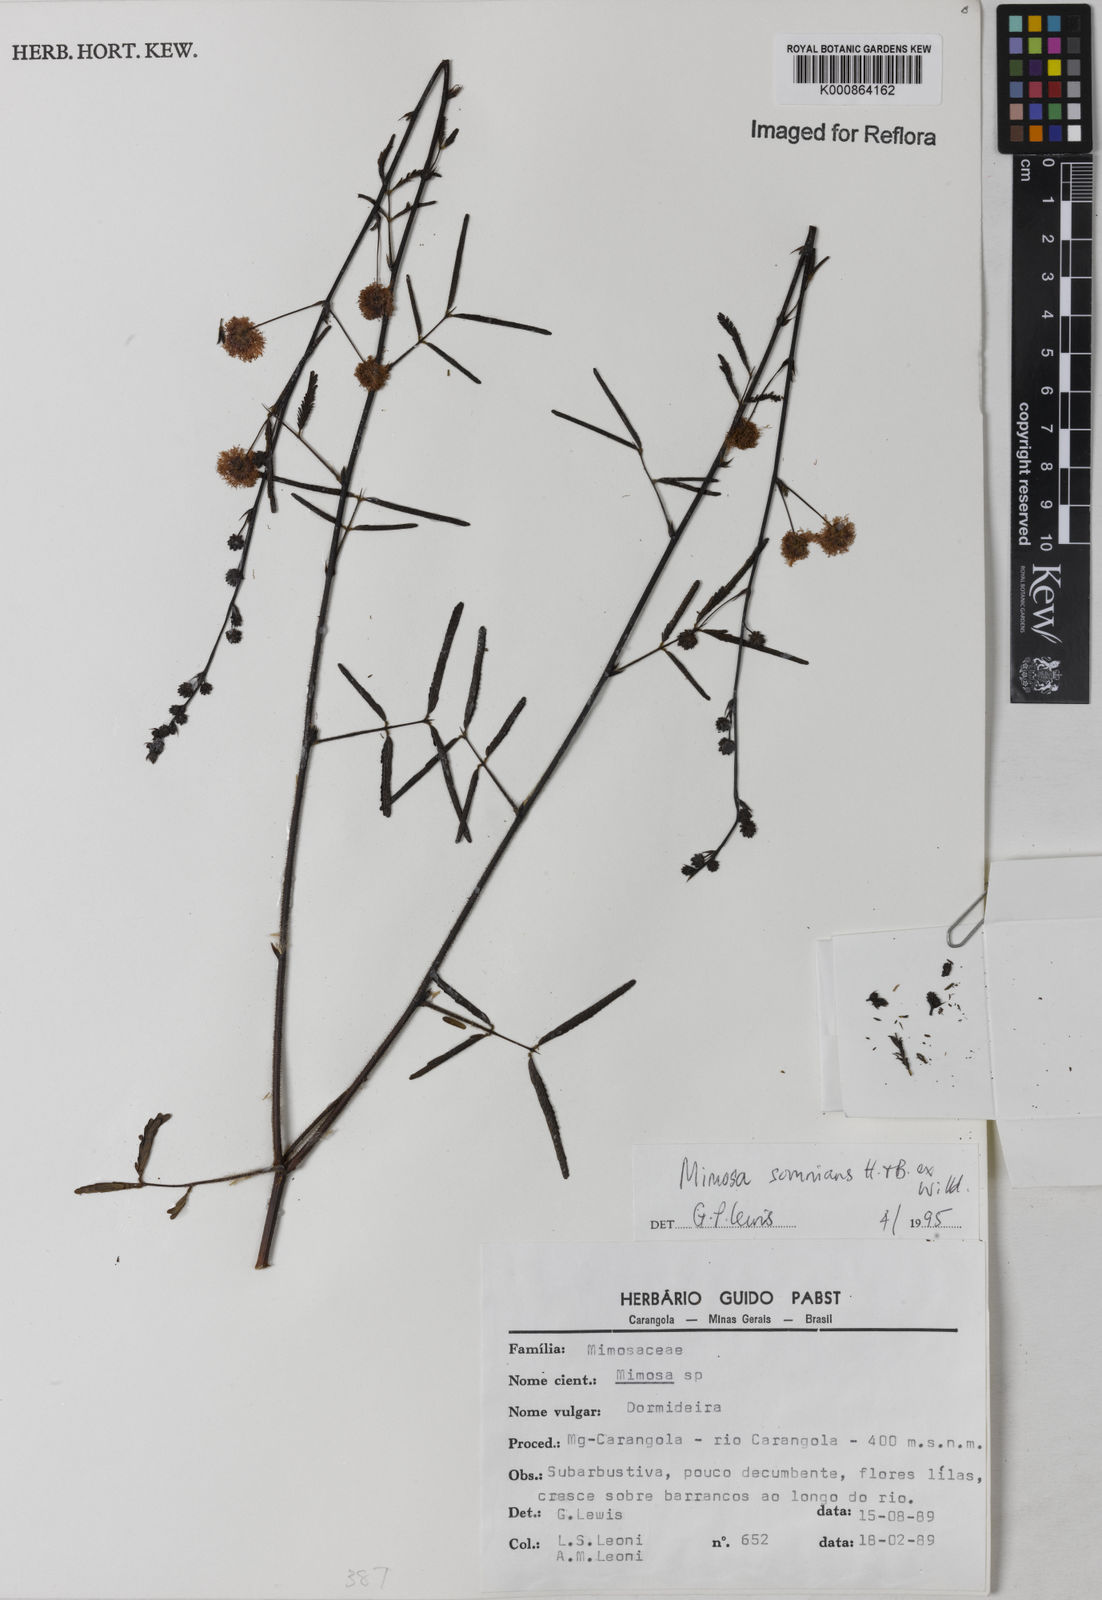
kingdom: Plantae
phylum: Tracheophyta
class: Magnoliopsida
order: Fabales
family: Fabaceae
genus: Mimosa
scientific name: Mimosa somnians
